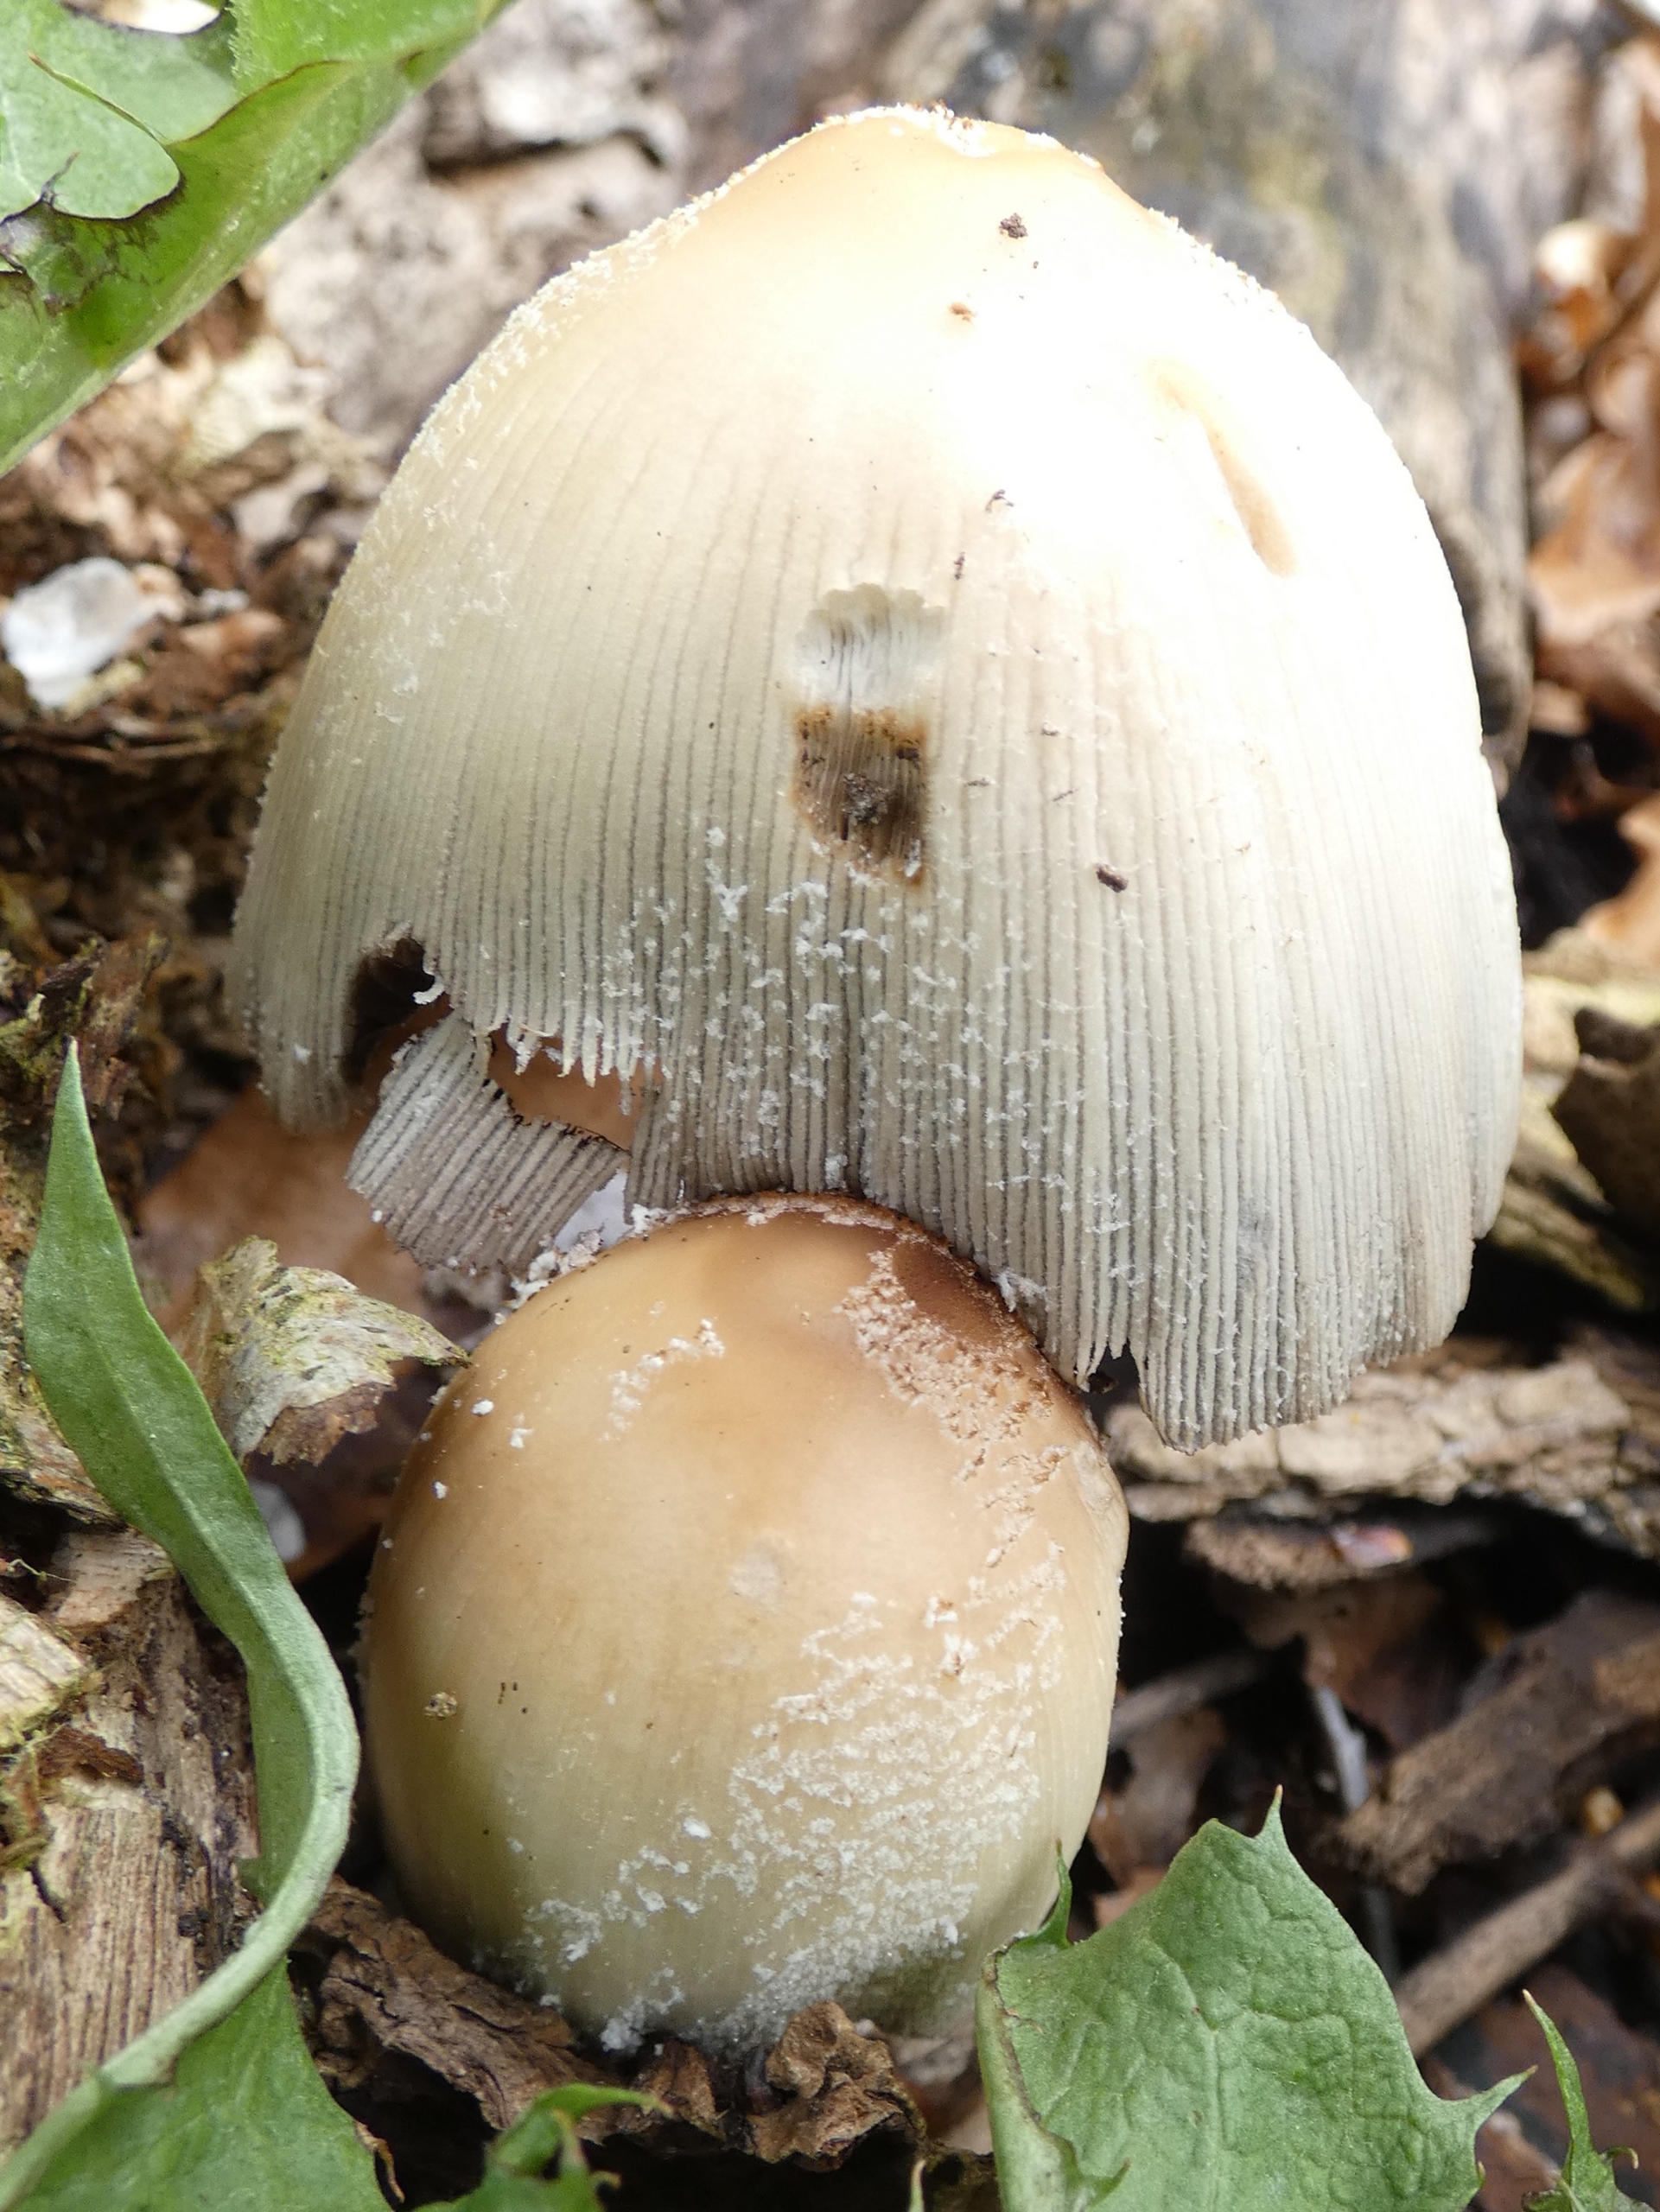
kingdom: Fungi
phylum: Basidiomycota
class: Agaricomycetes
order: Agaricales
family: Psathyrellaceae
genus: Coprinellus
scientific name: Coprinellus micaceus
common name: Glimmer-blækhat
